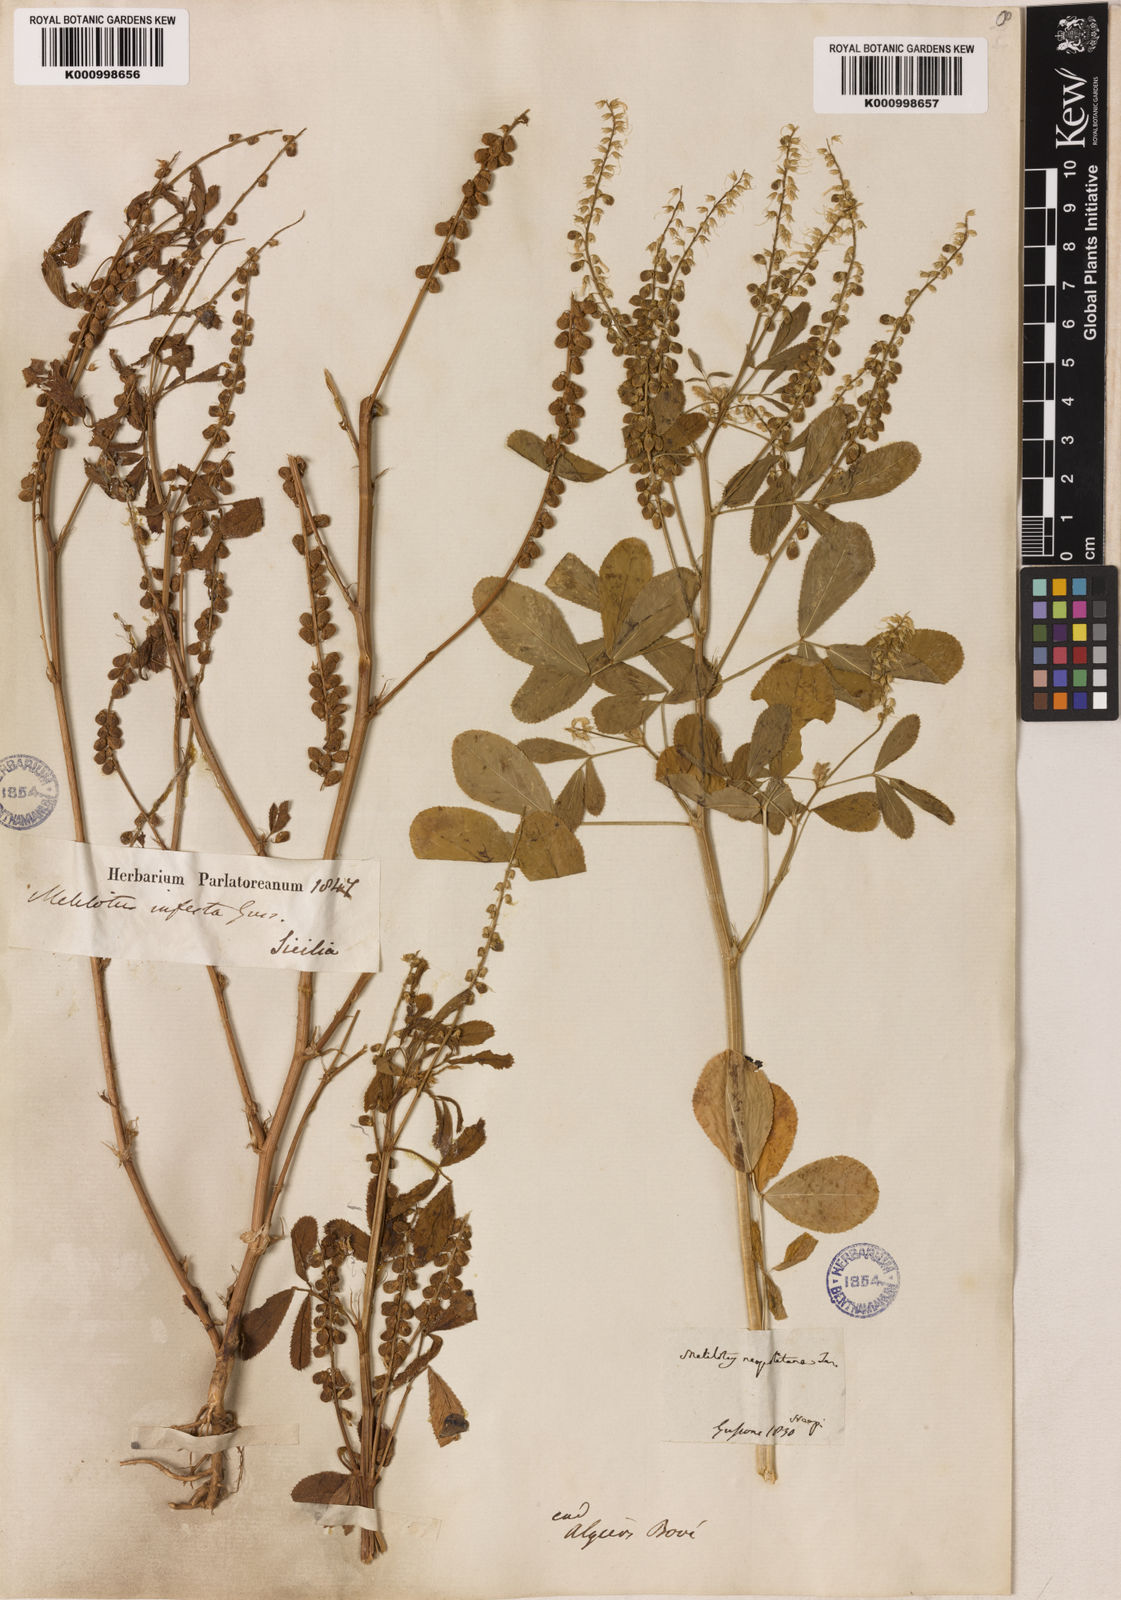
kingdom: Plantae
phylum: Tracheophyta
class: Magnoliopsida
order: Fabales
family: Fabaceae
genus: Melilotus
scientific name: Melilotus infestus
